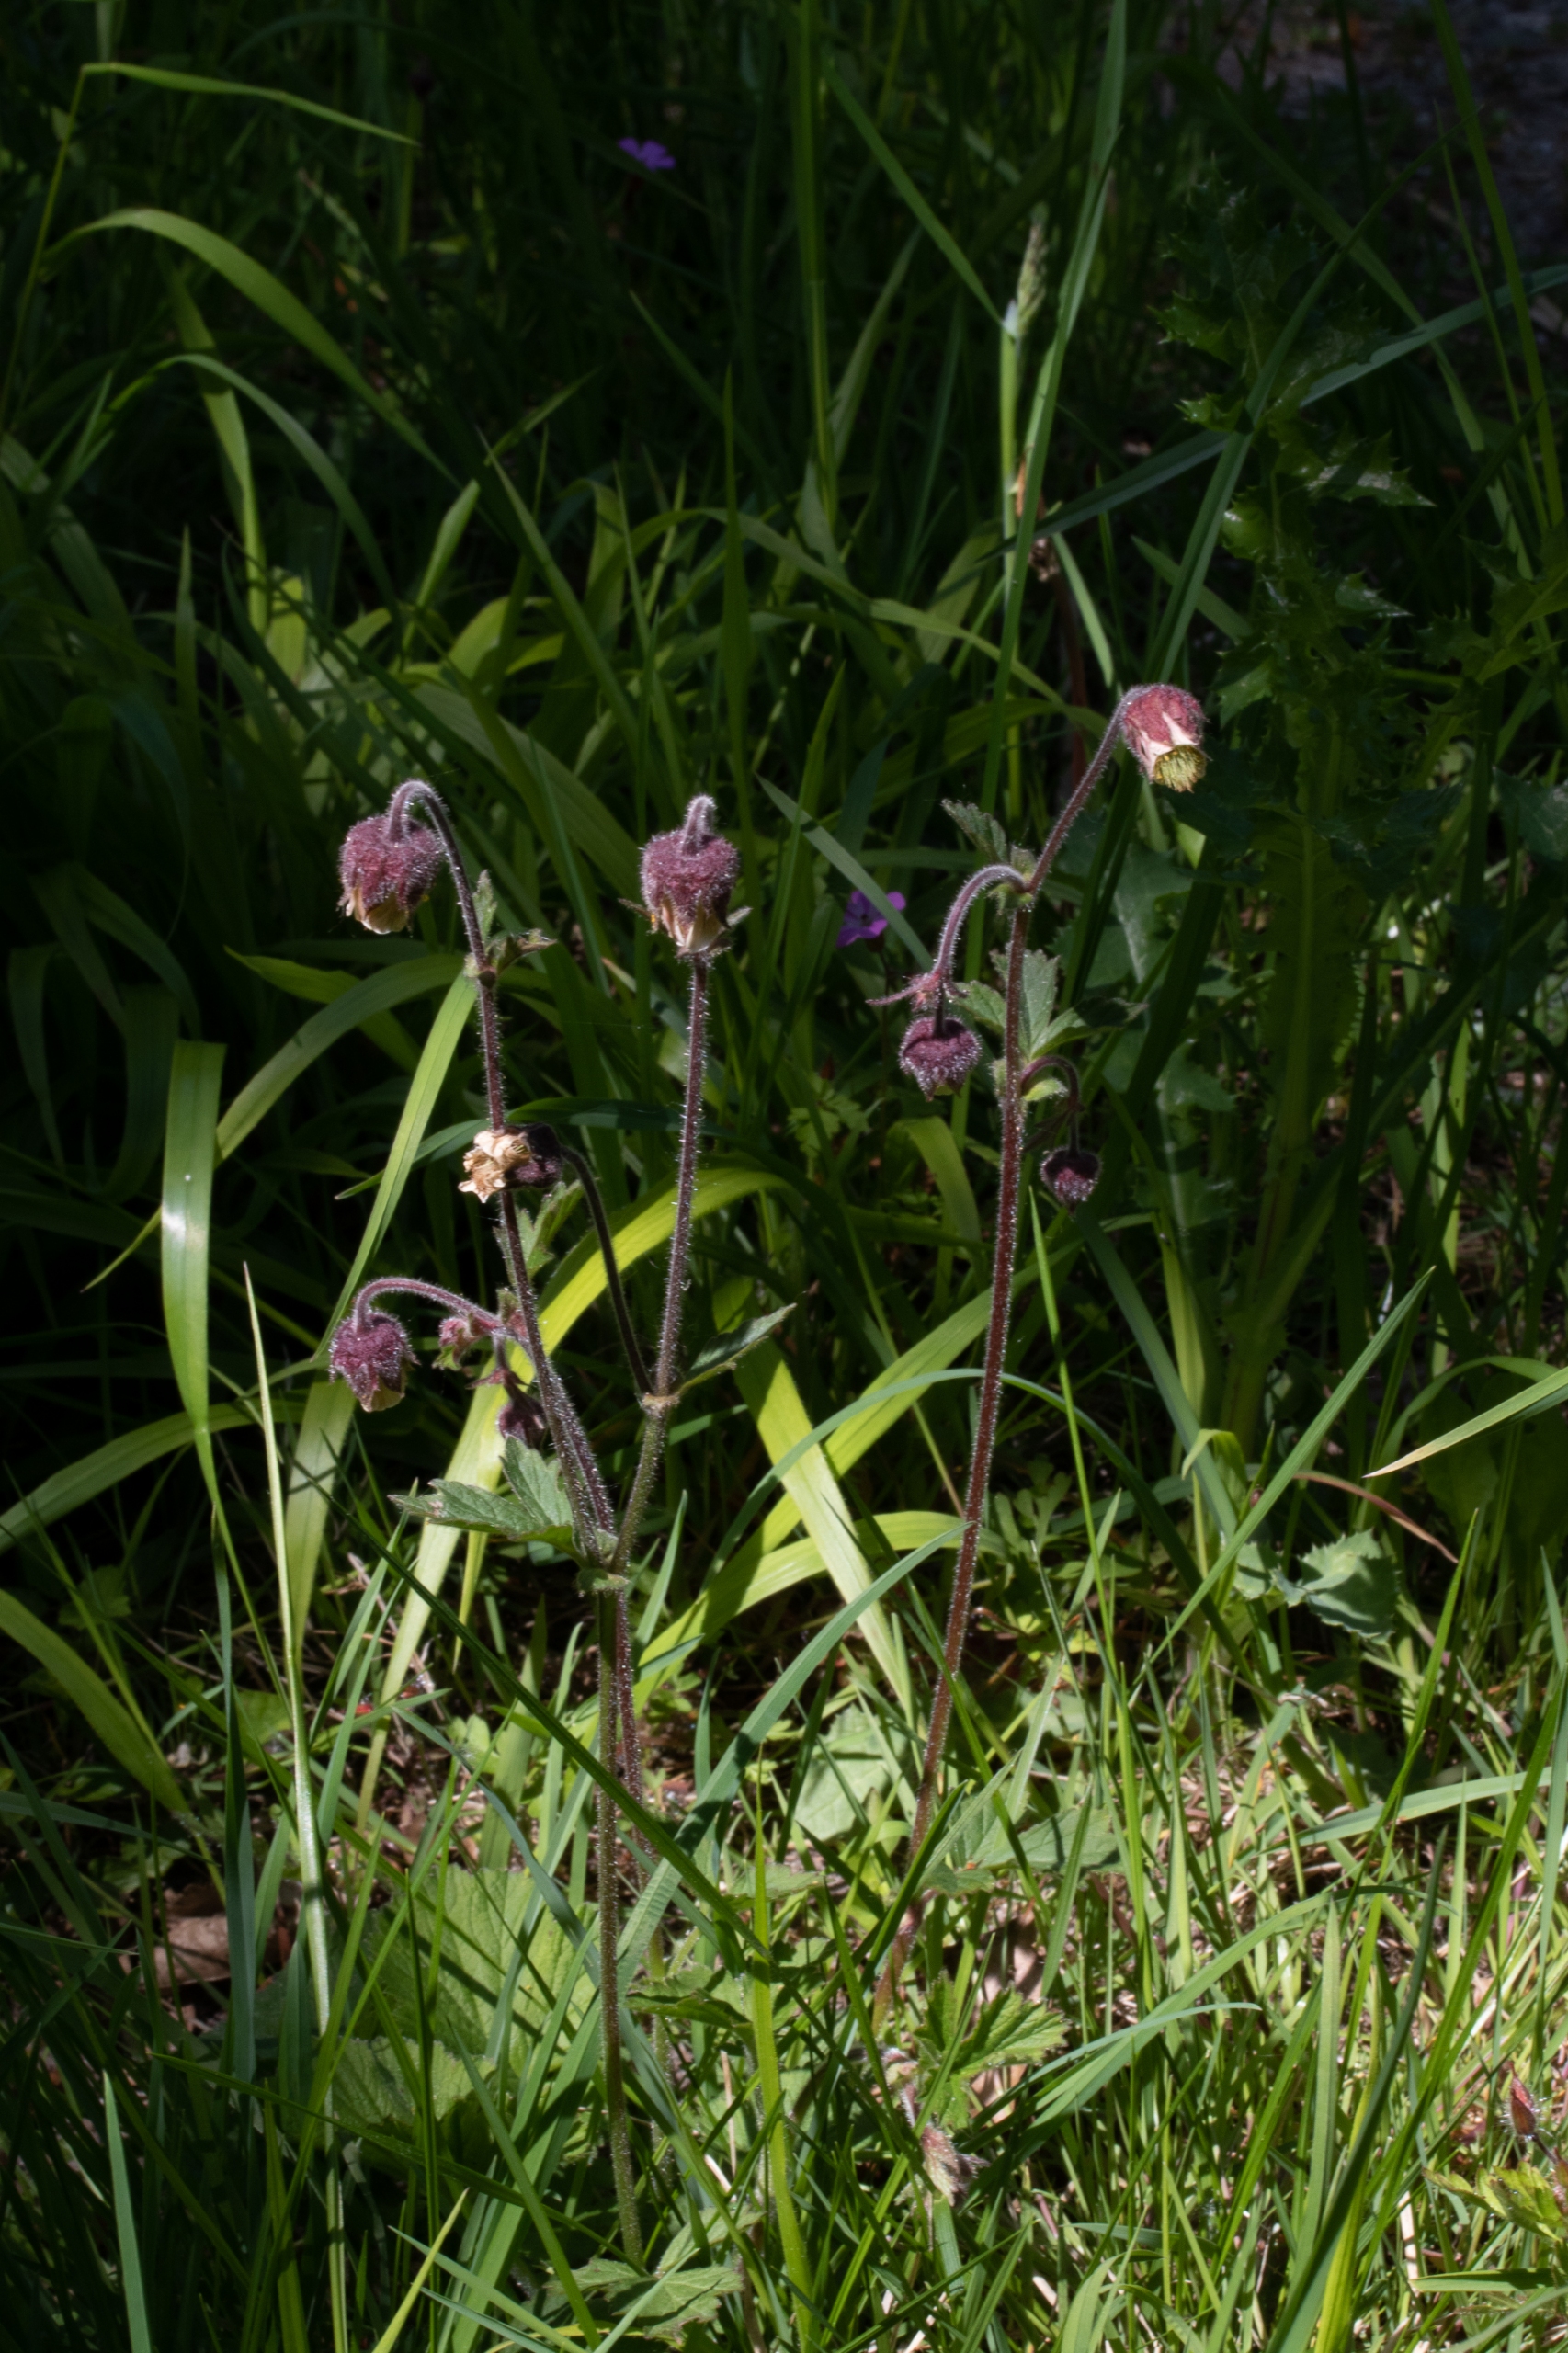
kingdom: Plantae
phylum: Tracheophyta
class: Magnoliopsida
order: Rosales
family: Rosaceae
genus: Geum
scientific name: Geum rivale
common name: Eng-nellikerod
